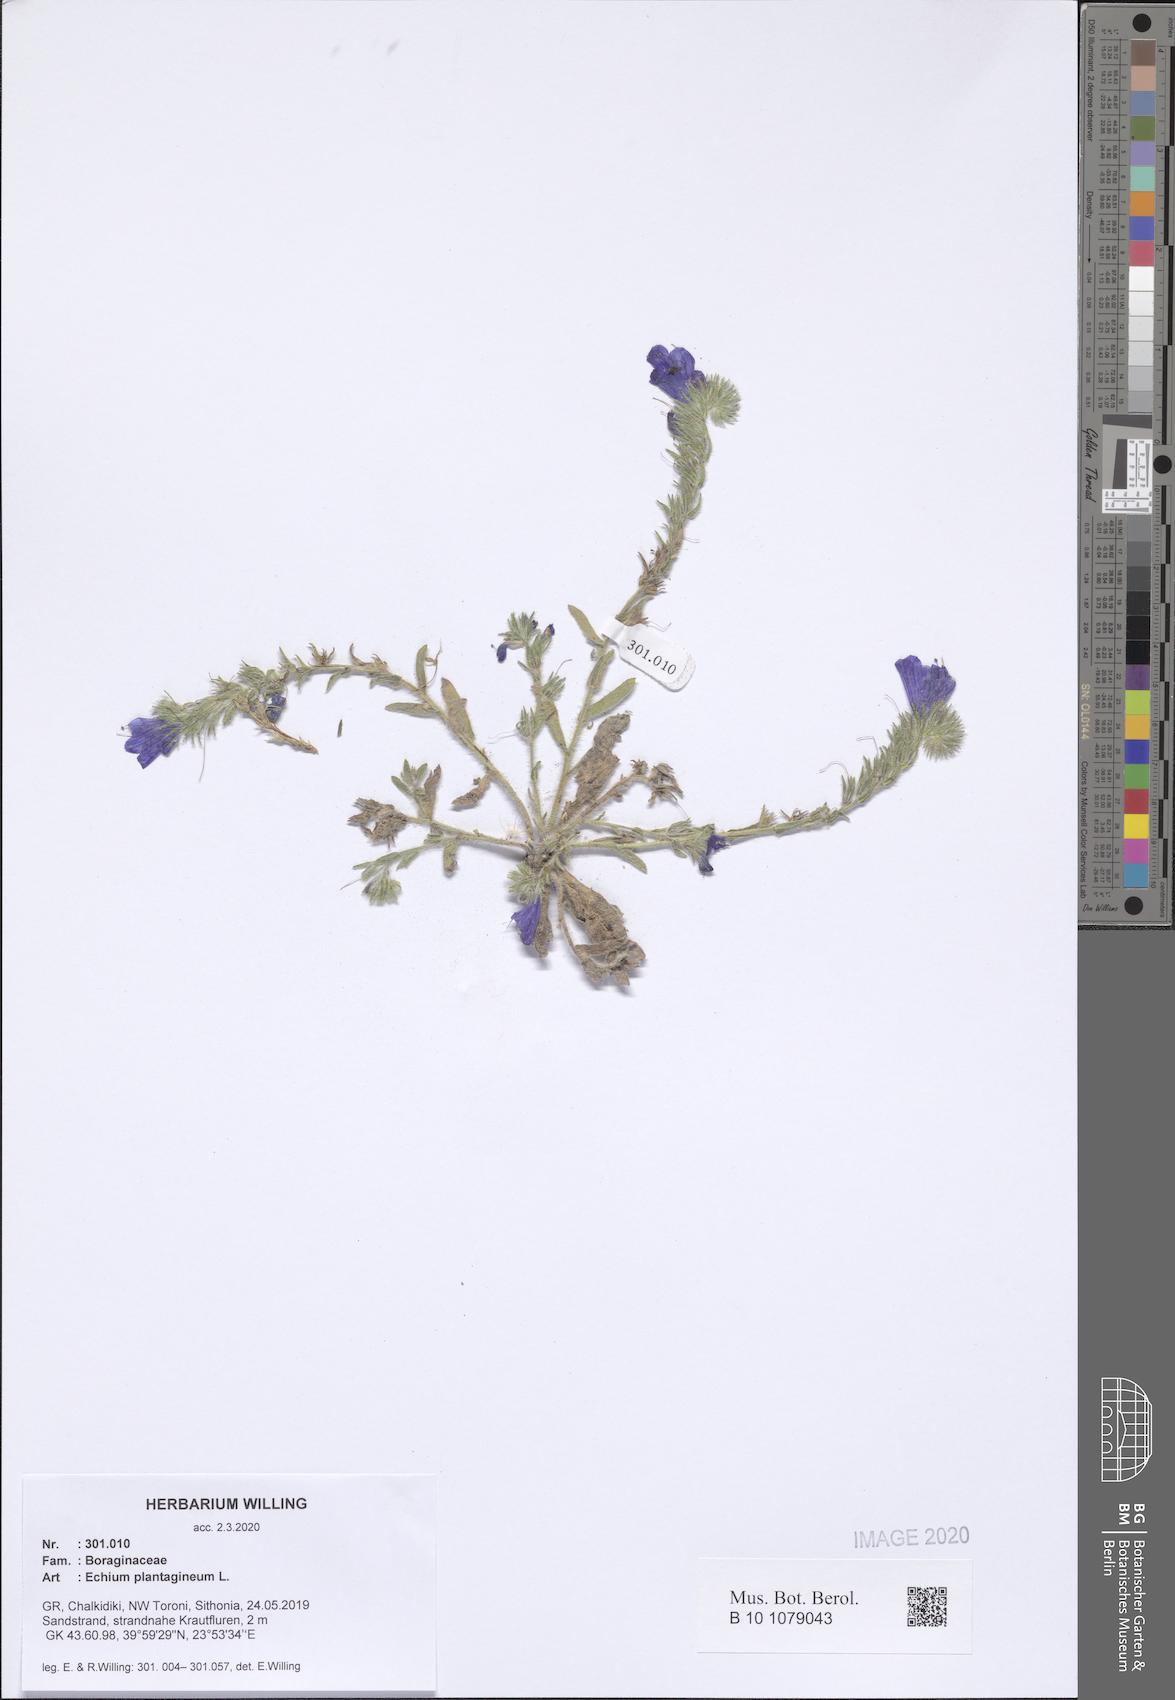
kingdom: Plantae
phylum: Tracheophyta
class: Magnoliopsida
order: Boraginales
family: Boraginaceae
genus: Echium
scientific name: Echium plantagineum
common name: Purple viper's-bugloss
